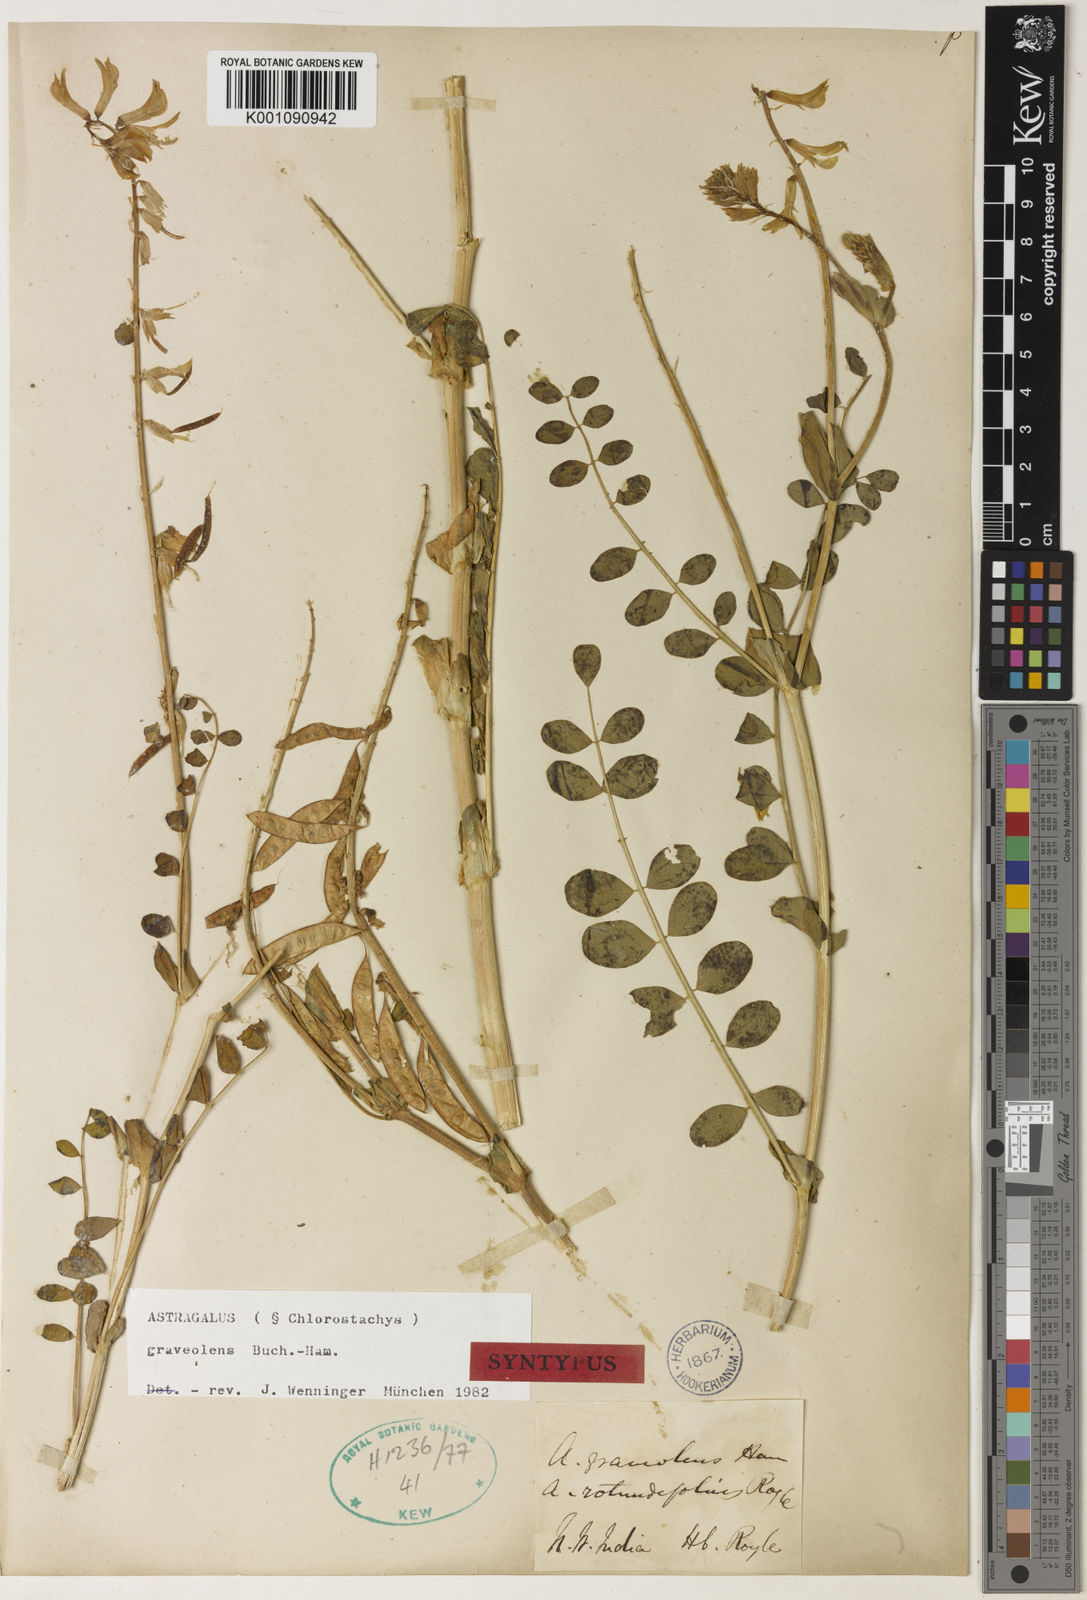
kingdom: Plantae
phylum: Tracheophyta
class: Magnoliopsida
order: Fabales
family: Fabaceae
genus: Astragalus
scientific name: Astragalus
